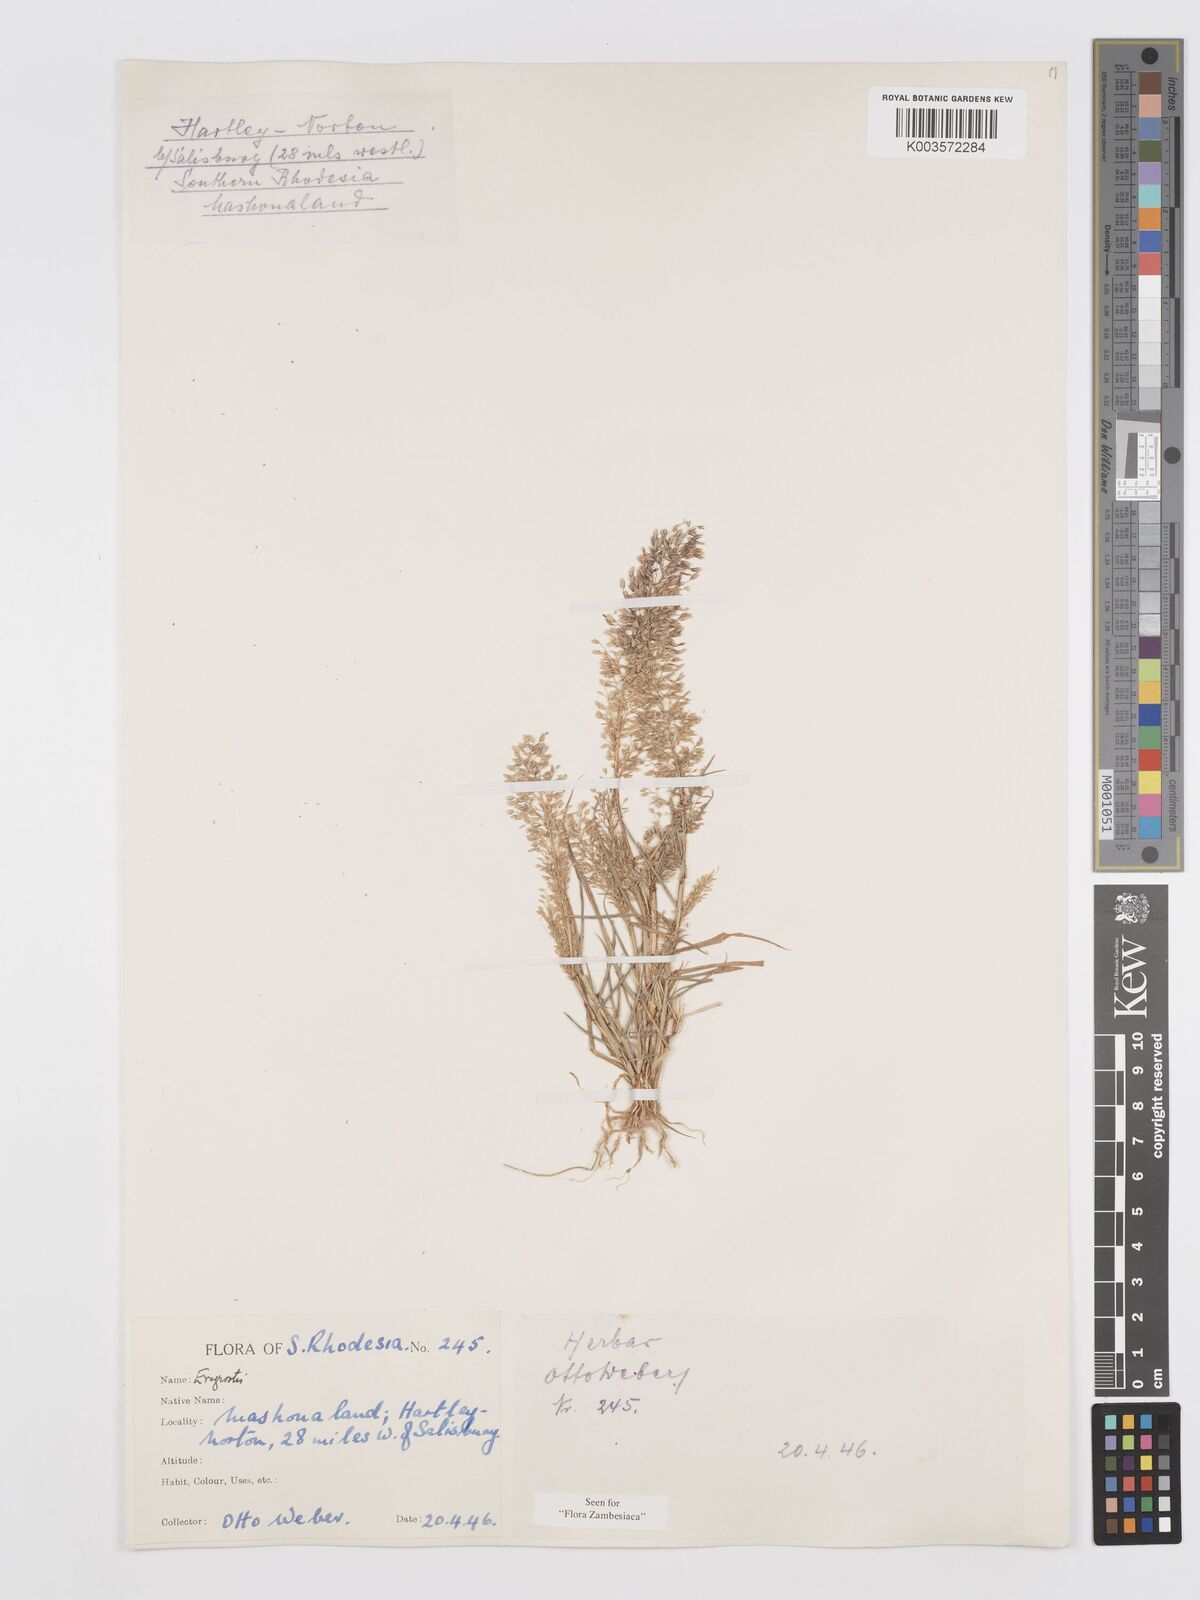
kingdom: Plantae
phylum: Tracheophyta
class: Liliopsida
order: Poales
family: Poaceae
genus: Eragrostis
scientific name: Eragrostis
